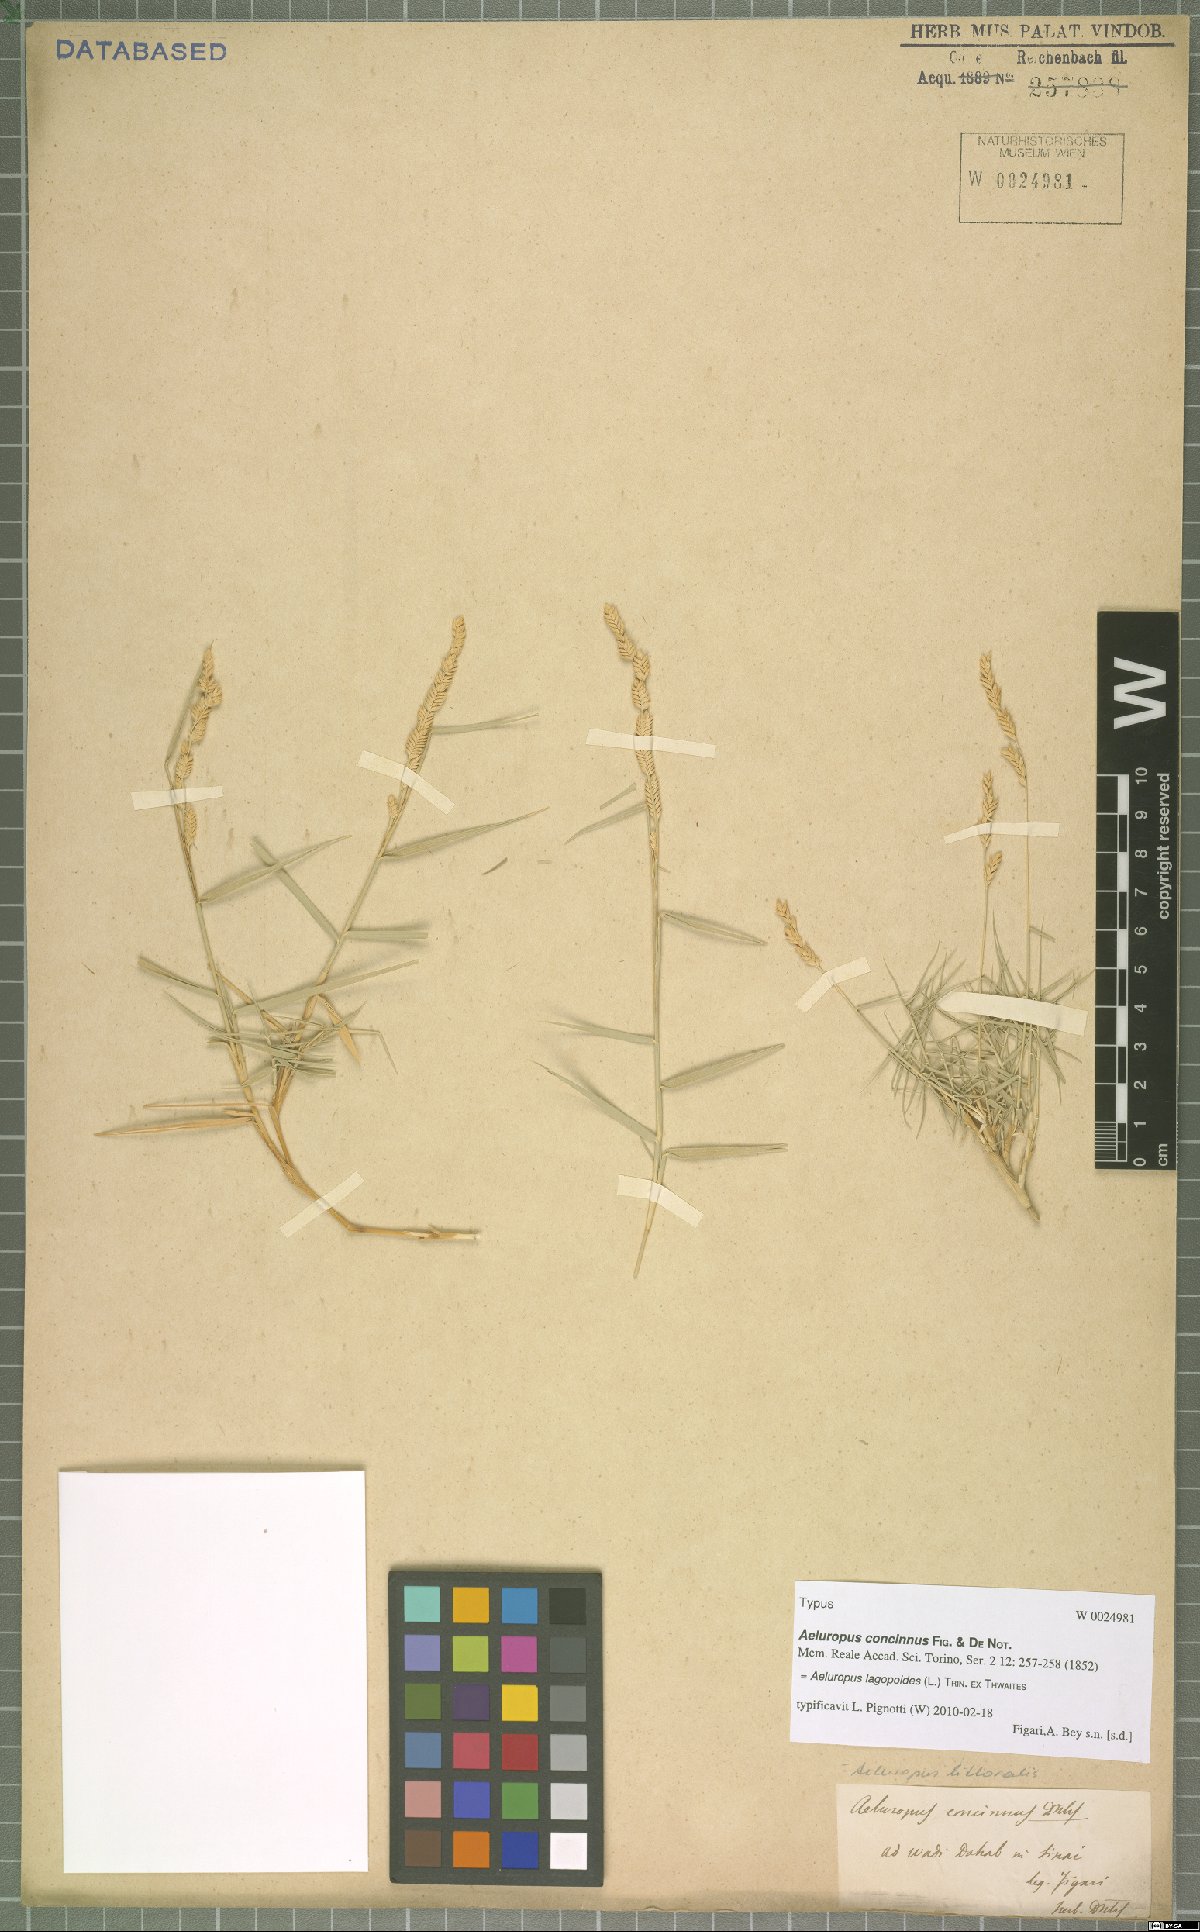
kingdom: Plantae
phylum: Tracheophyta
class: Liliopsida
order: Poales
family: Poaceae
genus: Aeluropus
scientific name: Aeluropus lagopoides
